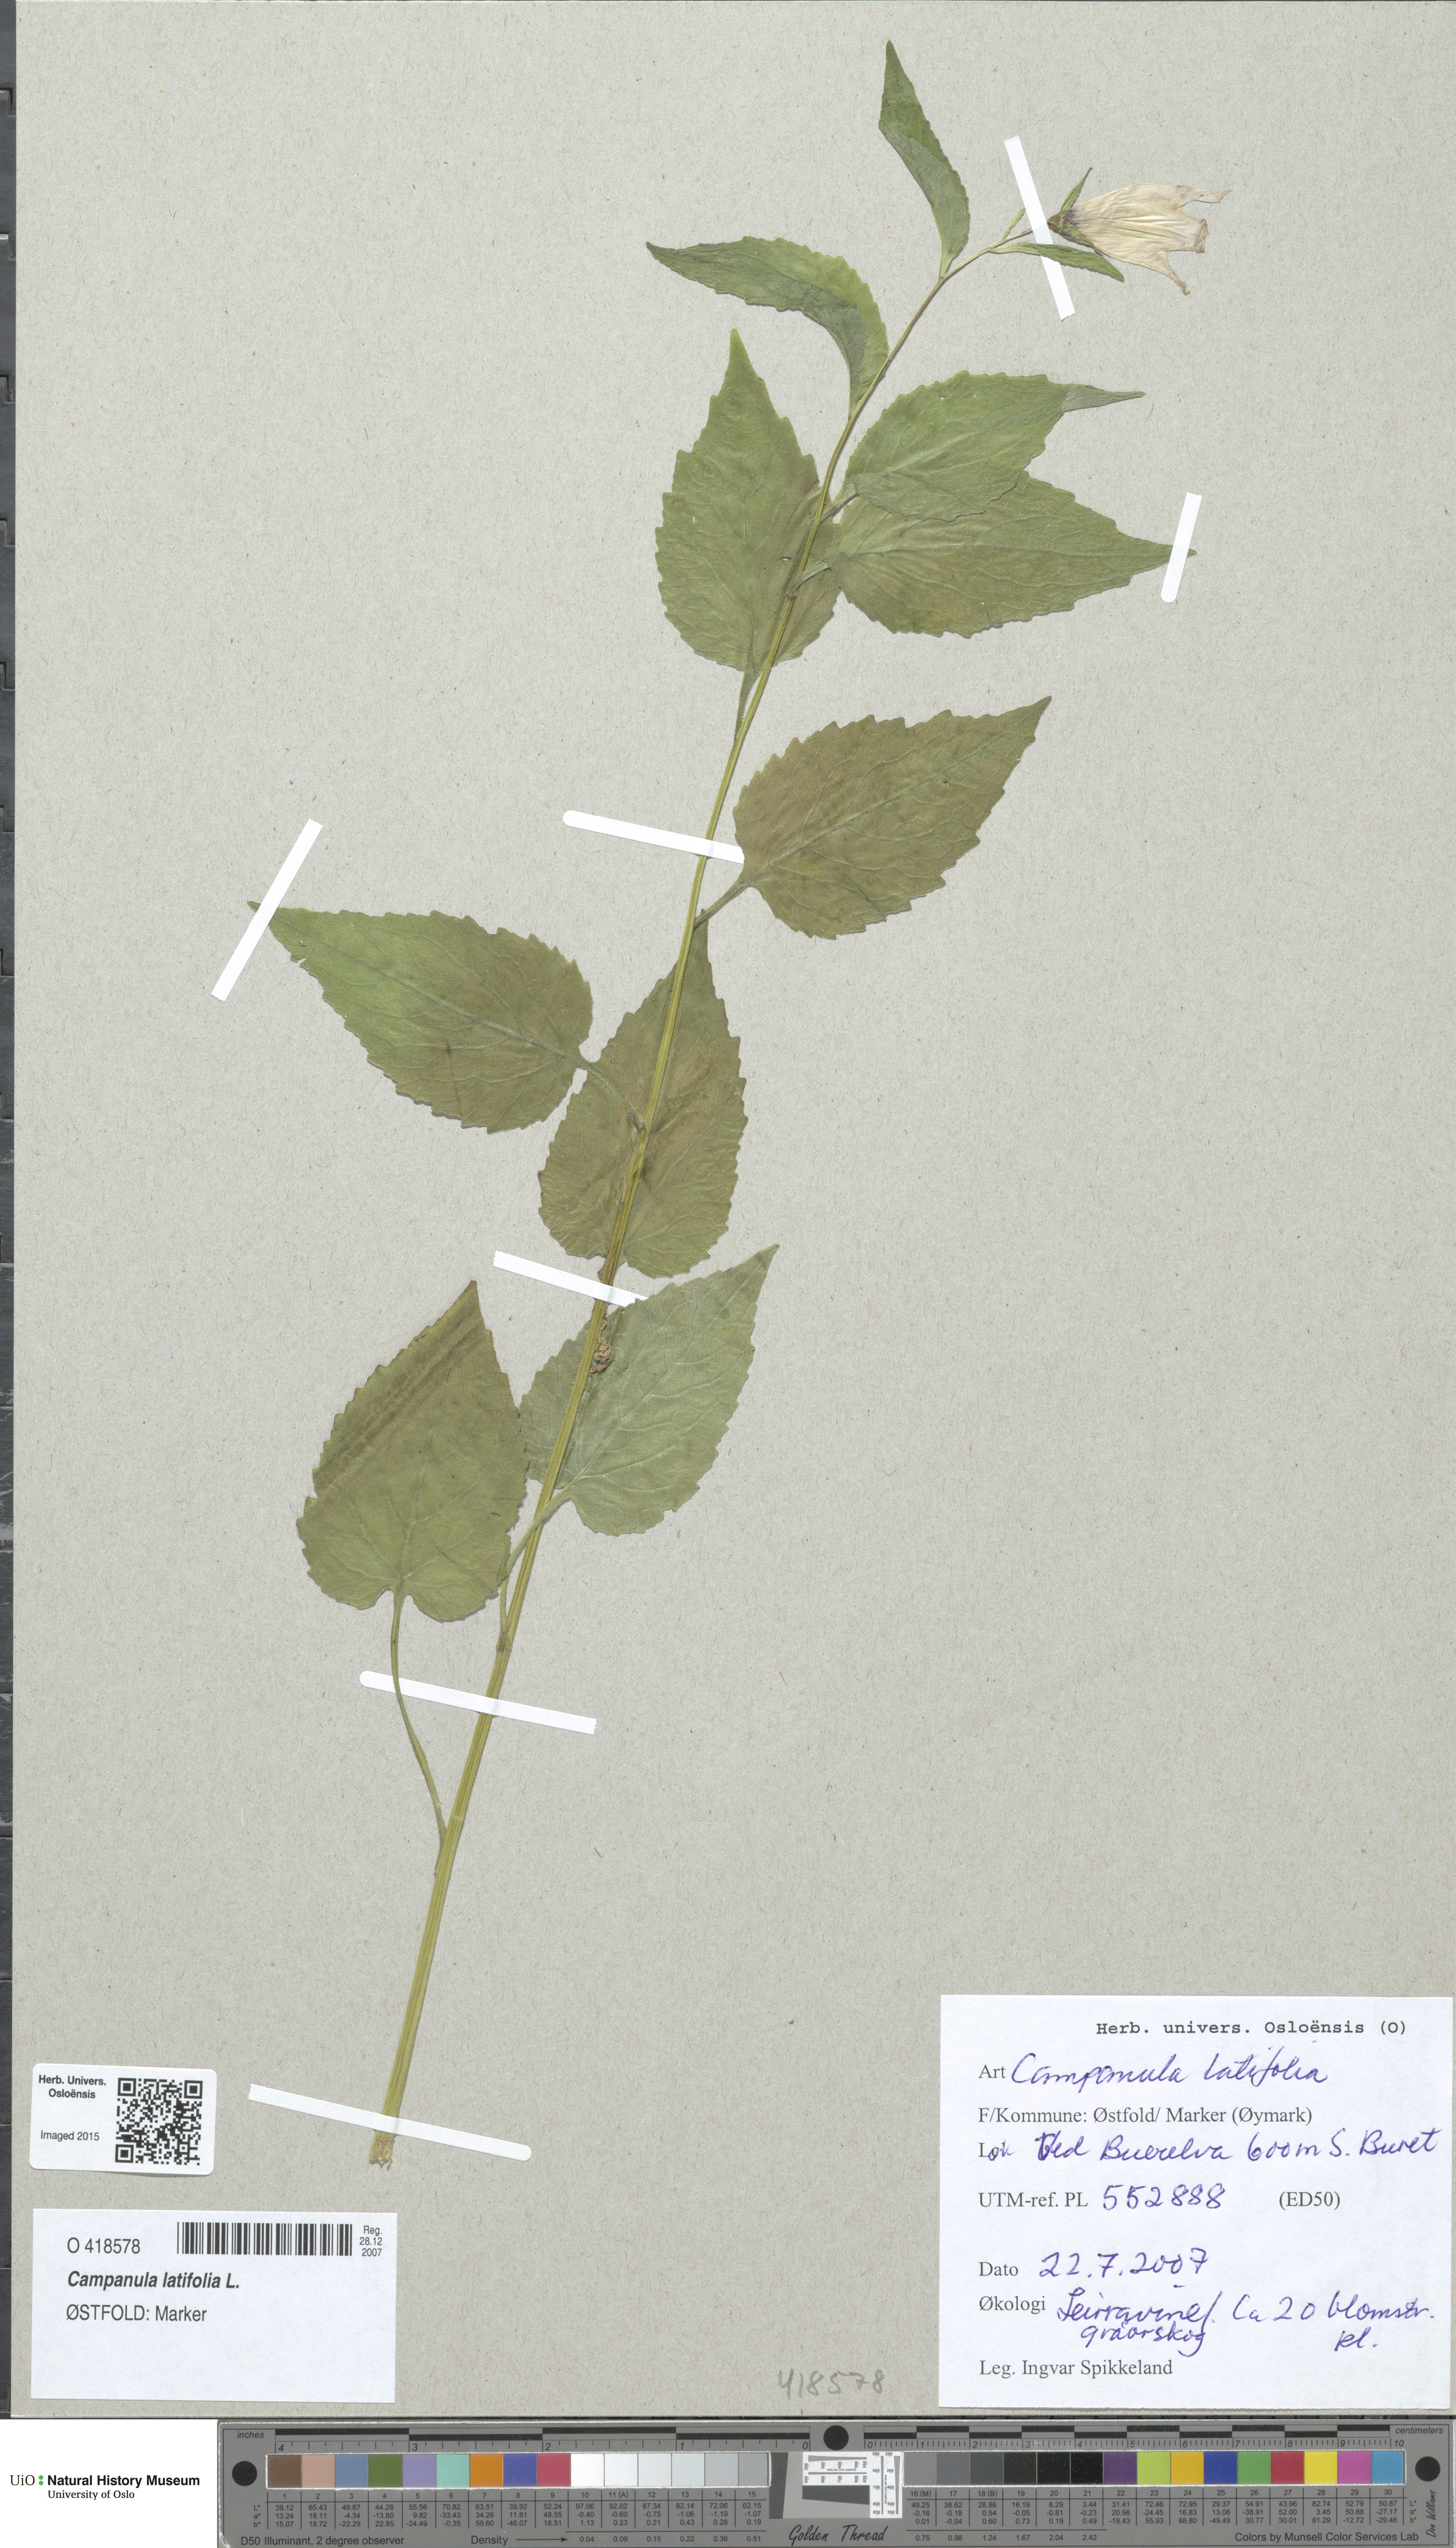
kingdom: Plantae
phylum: Tracheophyta
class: Magnoliopsida
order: Asterales
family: Campanulaceae
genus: Campanula
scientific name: Campanula latifolia
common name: Giant bellflower
